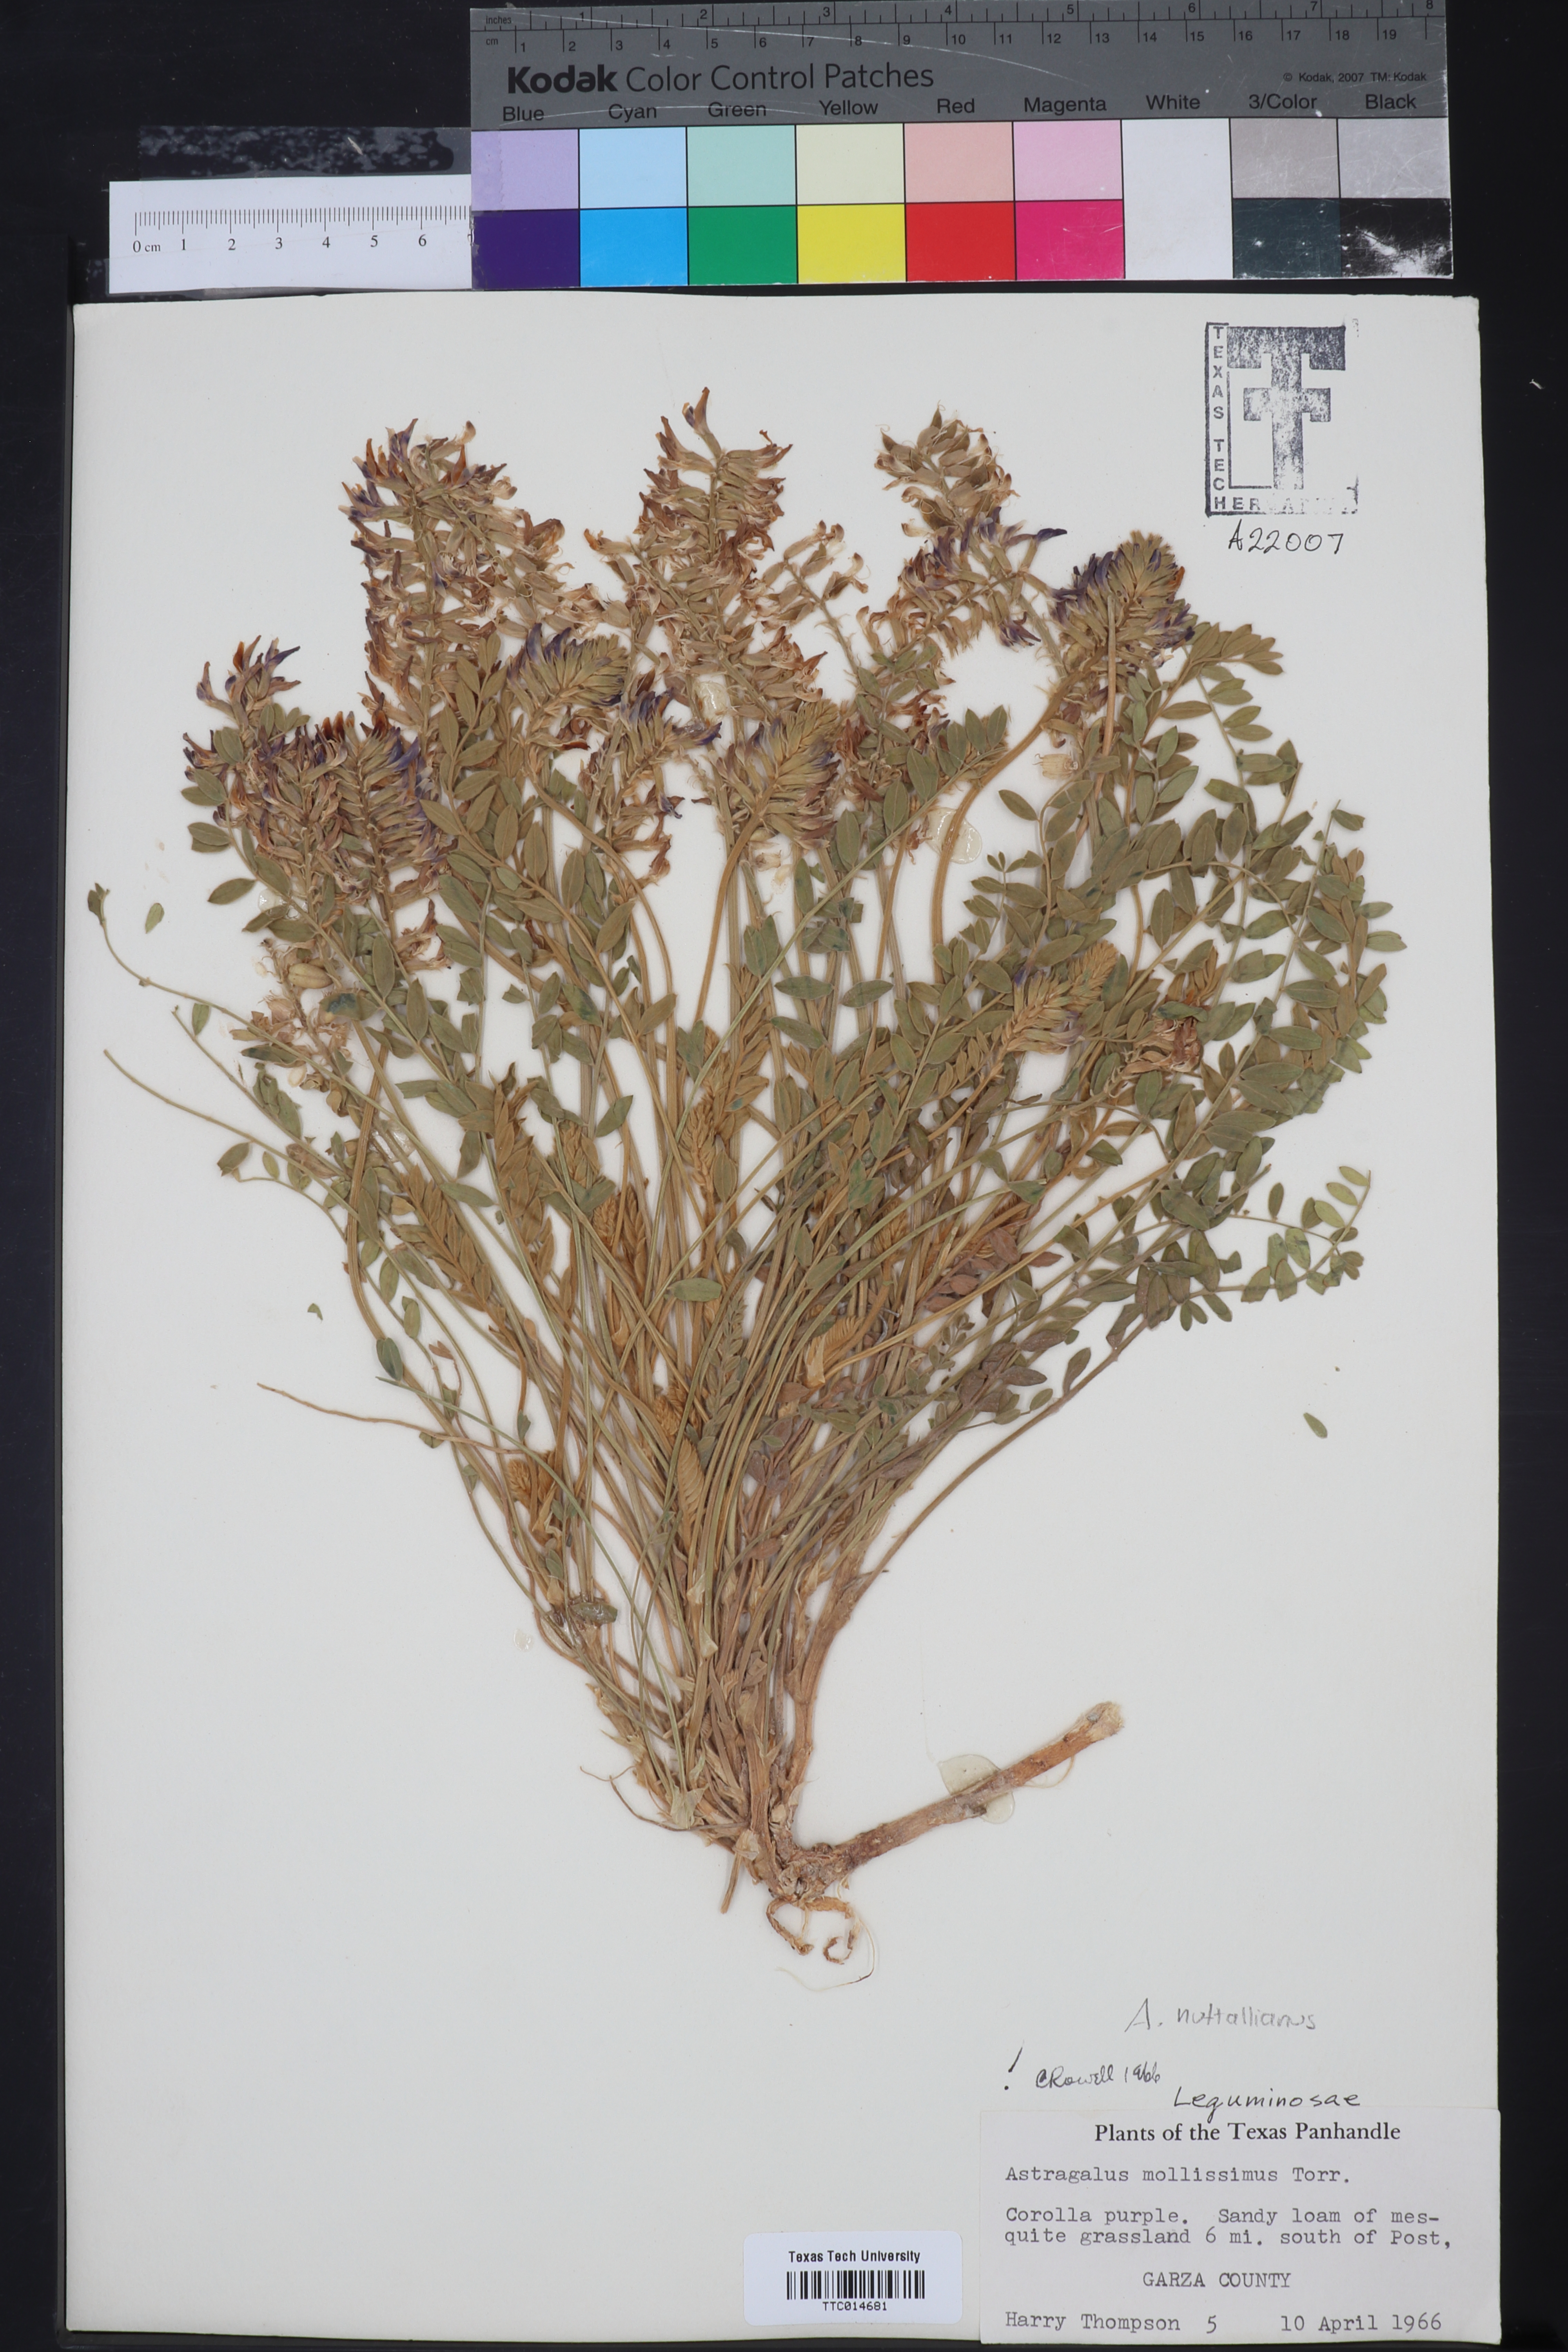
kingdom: Plantae
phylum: Tracheophyta
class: Magnoliopsida
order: Fabales
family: Fabaceae
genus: Astragalus
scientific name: Astragalus mollissimus
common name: Woolly locoweed
